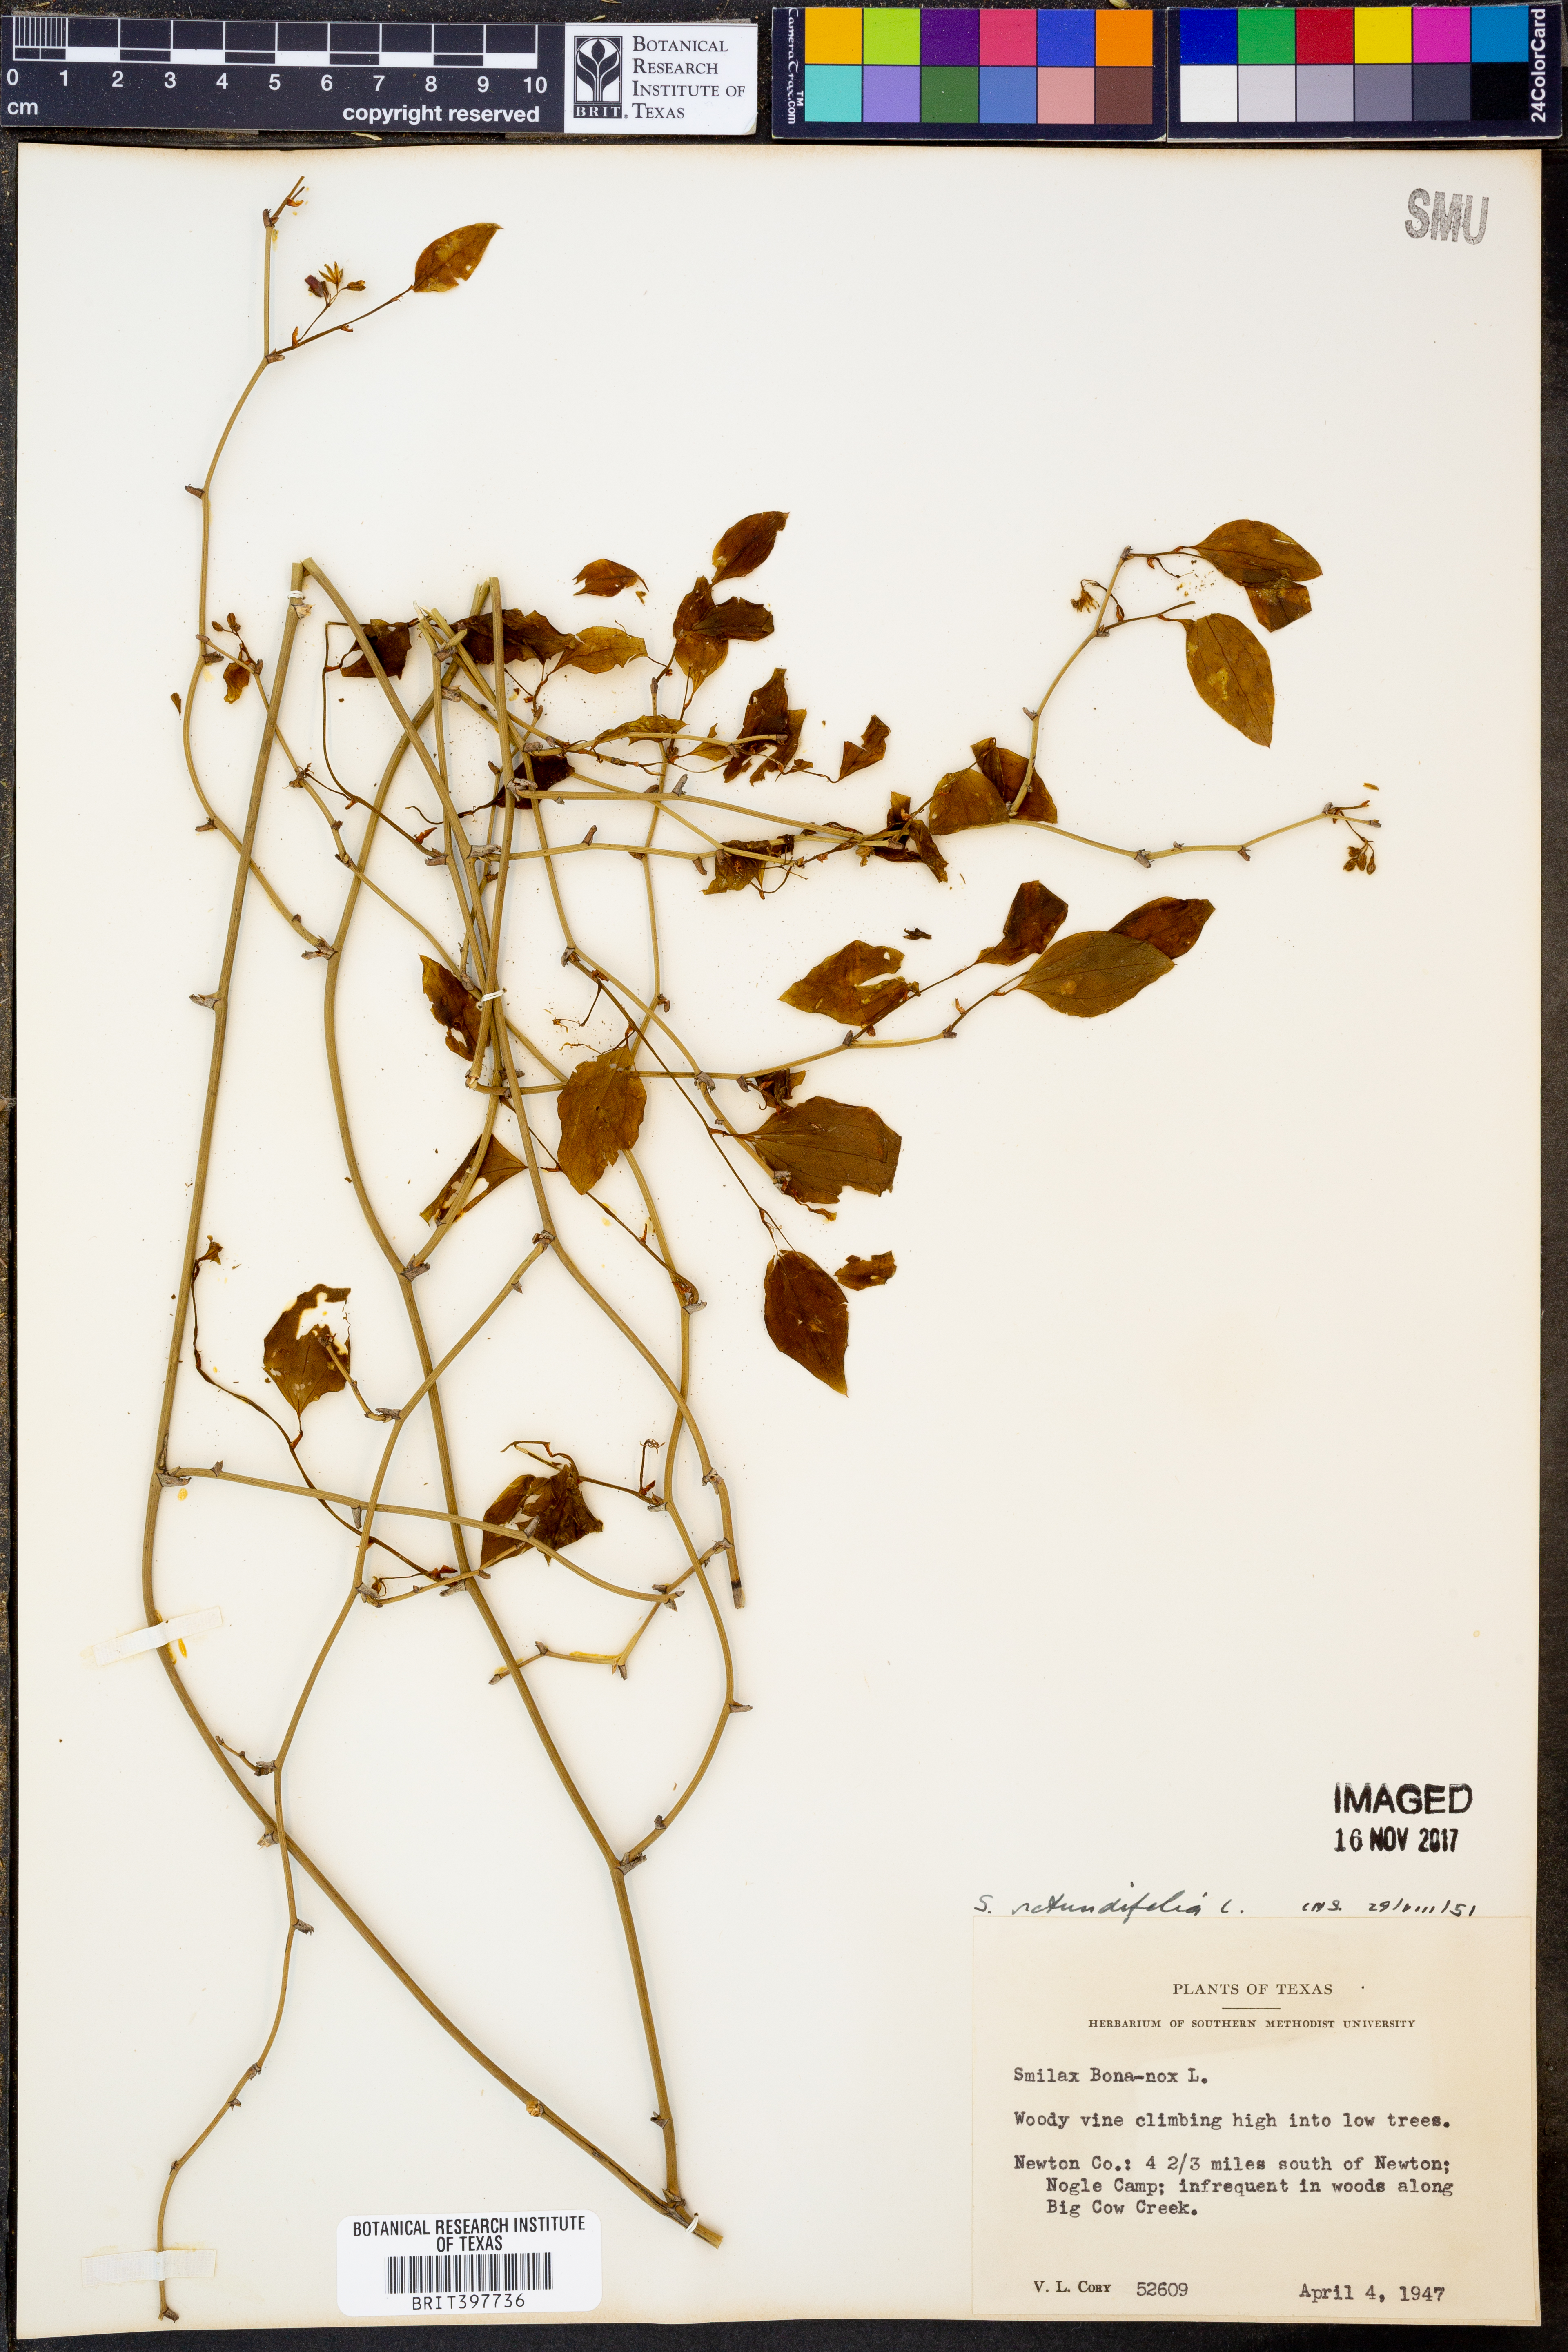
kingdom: Plantae
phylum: Tracheophyta
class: Liliopsida
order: Liliales
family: Smilacaceae
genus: Smilax
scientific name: Smilax rotundifolia
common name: Bullbriar
